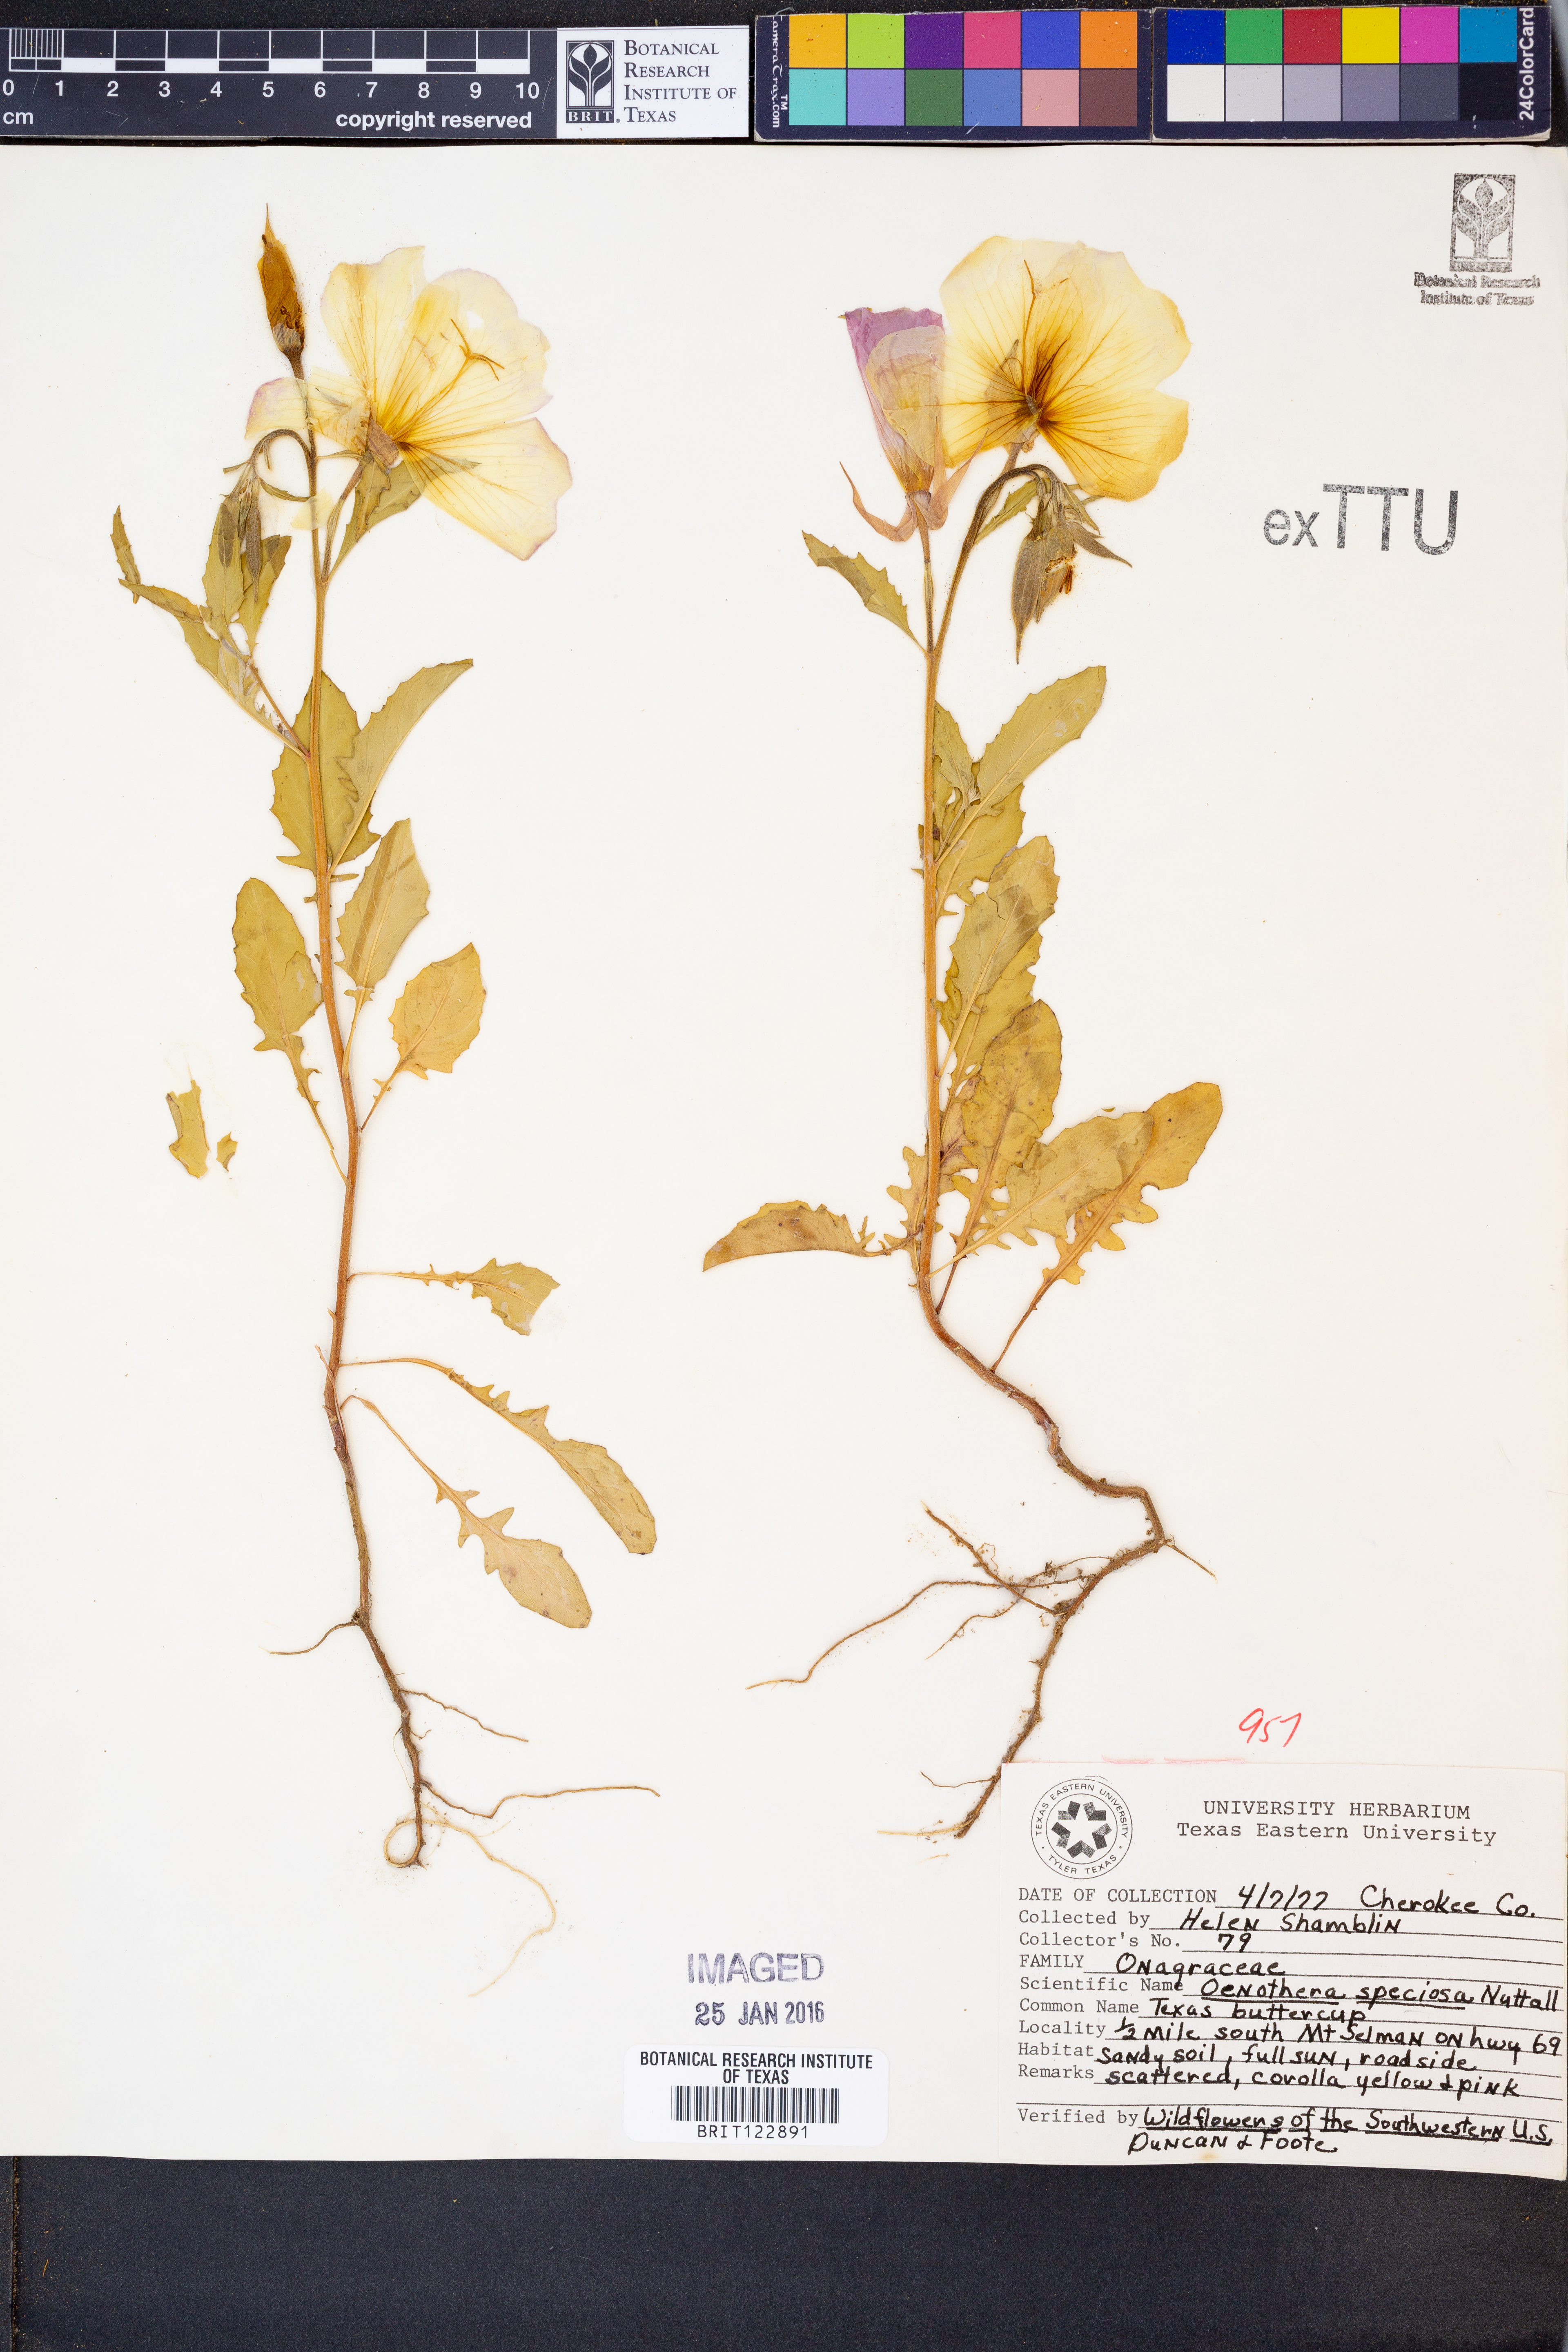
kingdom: Plantae
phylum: Tracheophyta
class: Magnoliopsida
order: Myrtales
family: Onagraceae
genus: Oenothera
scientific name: Oenothera speciosa
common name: White evening-primrose
